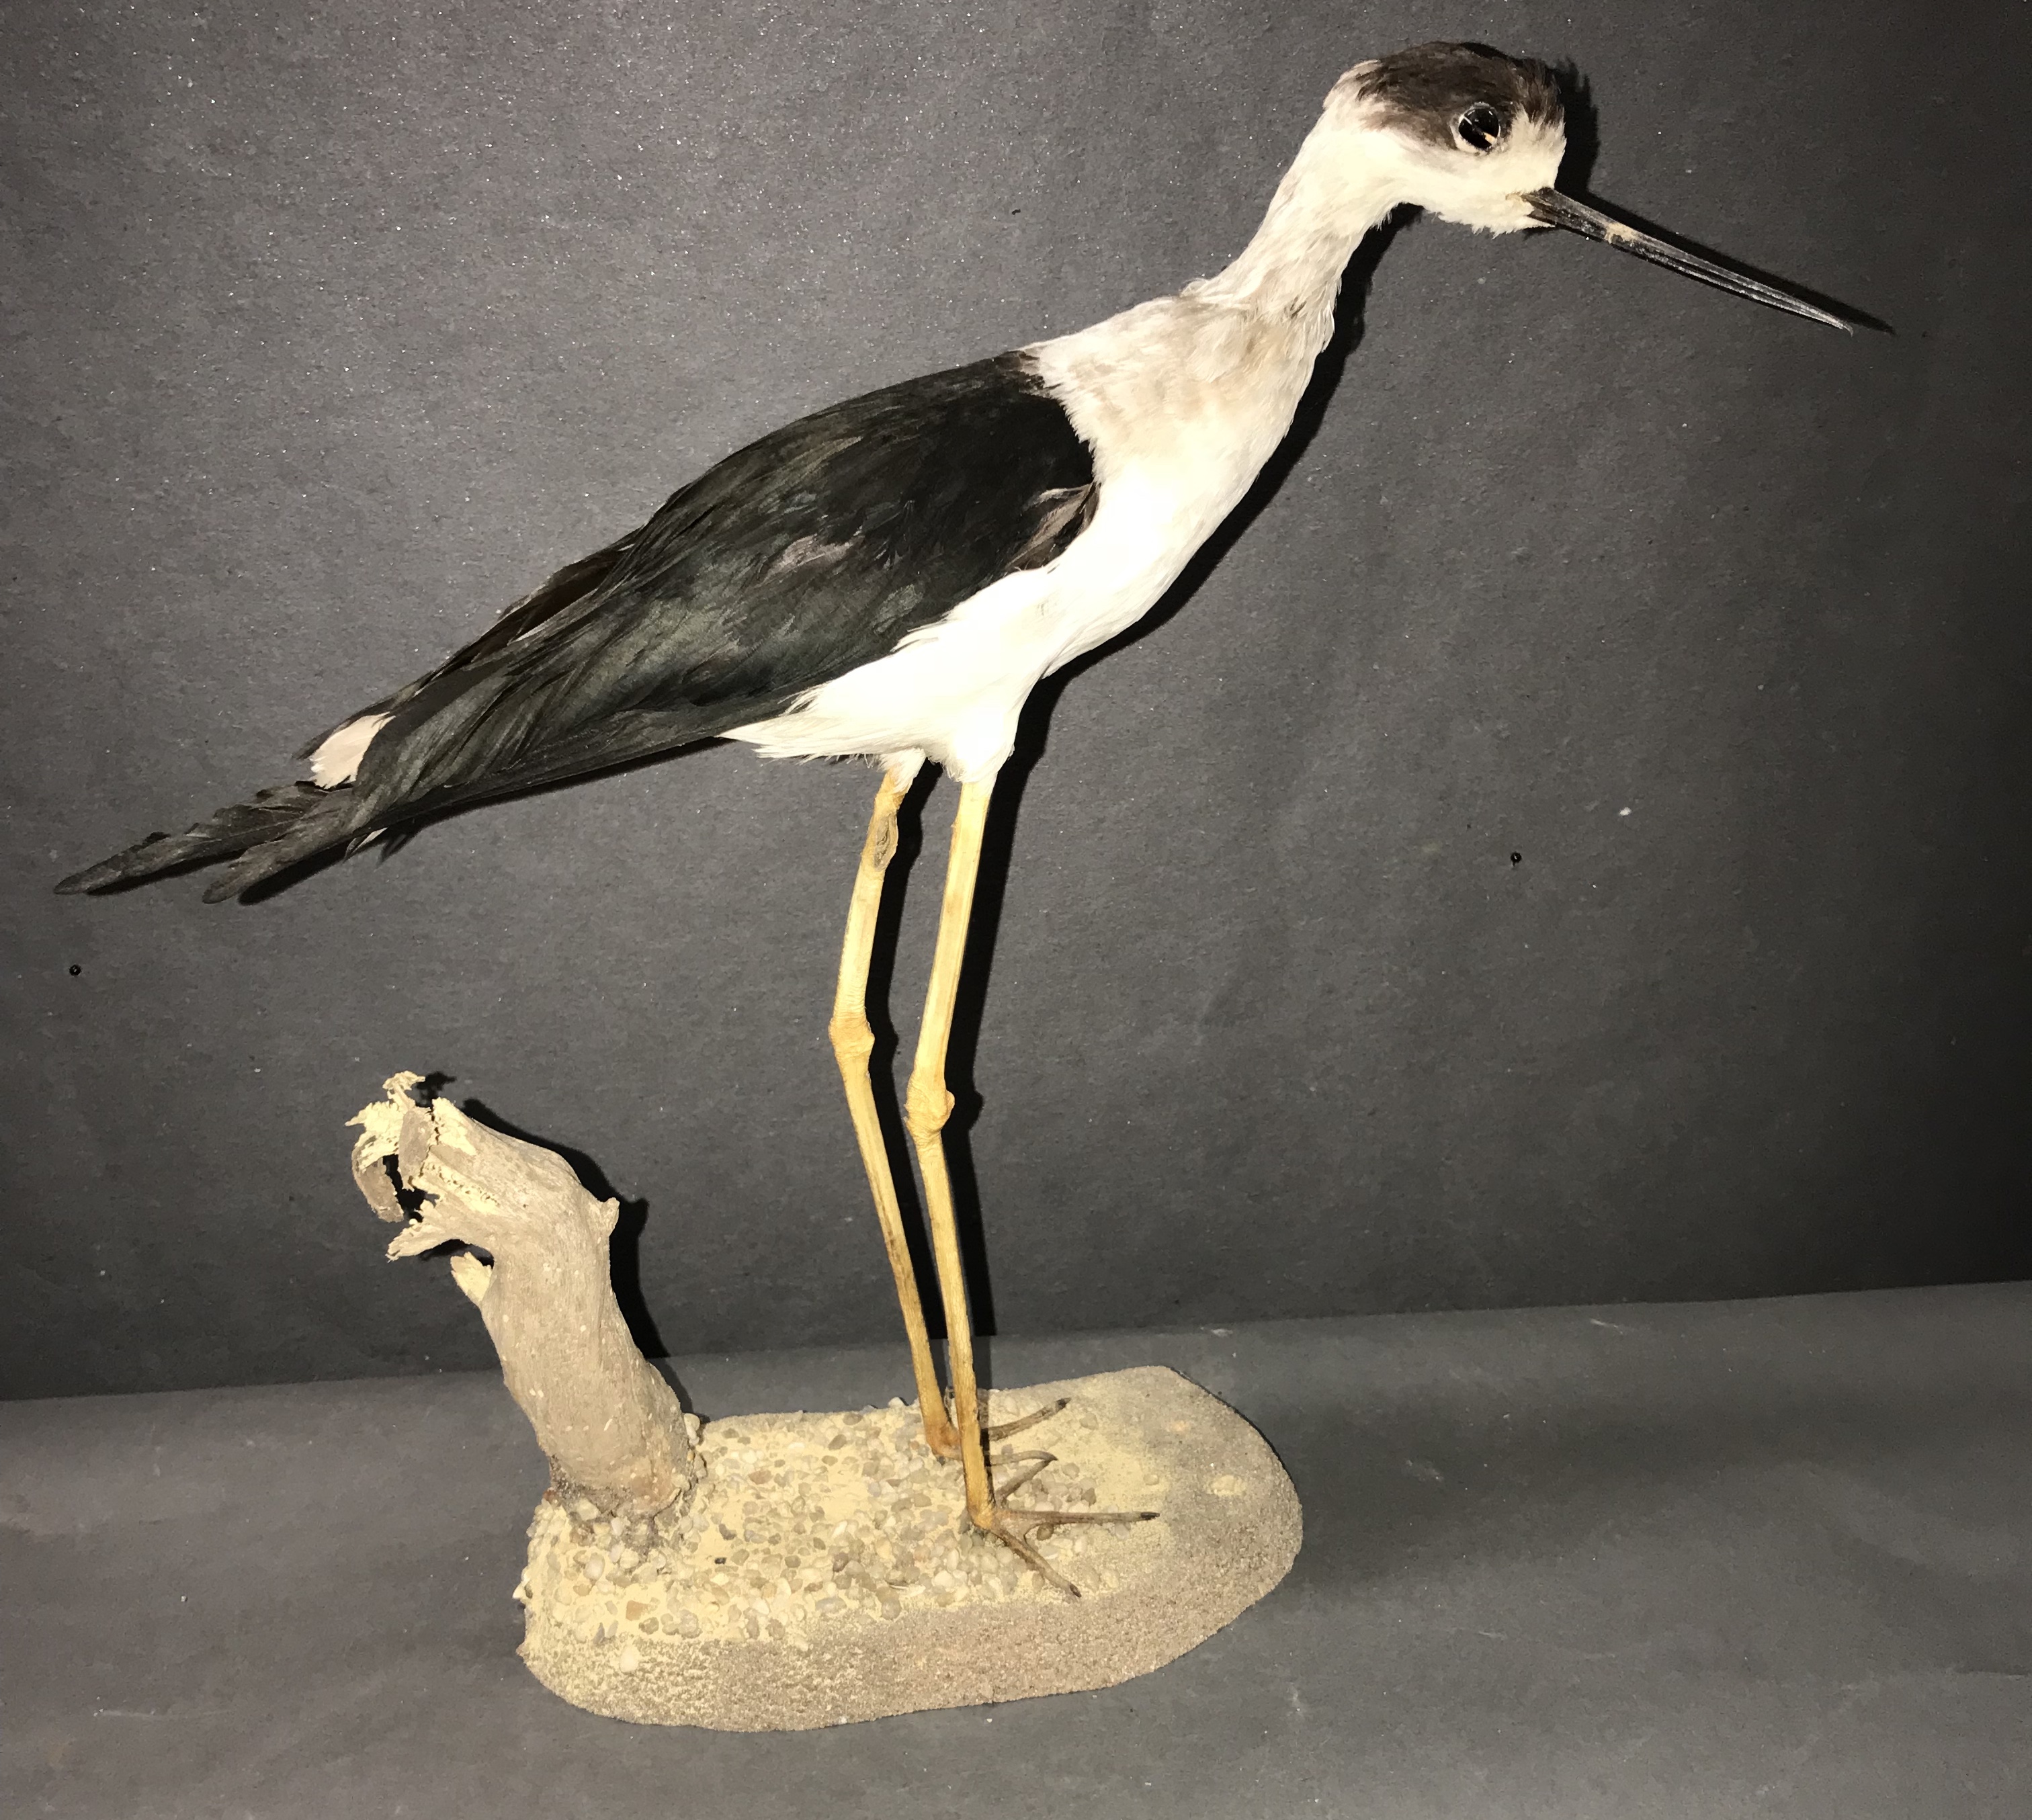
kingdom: Animalia
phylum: Chordata
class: Aves
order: Charadriiformes
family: Recurvirostridae
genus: Himantopus
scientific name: Himantopus himantopus
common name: Black-winged stilt
